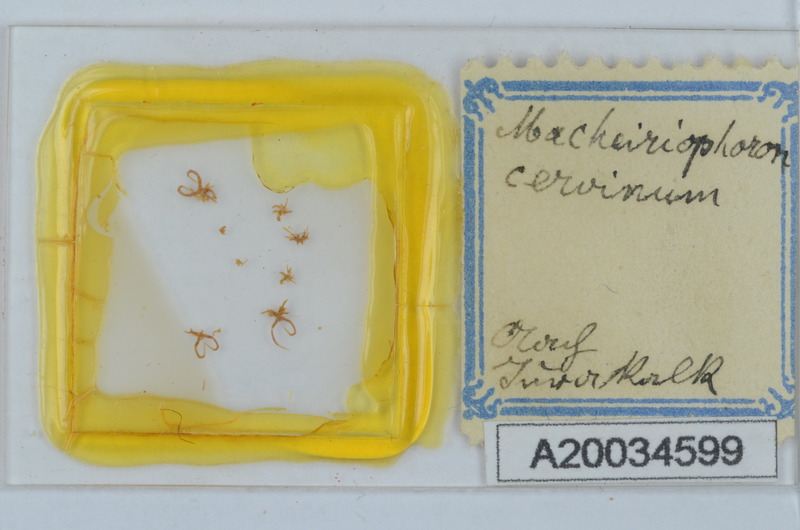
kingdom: Animalia
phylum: Arthropoda
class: Diplopoda
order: Chordeumatida
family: Craspedosomatidae
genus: Rhymogona
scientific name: Rhymogona montivaga
